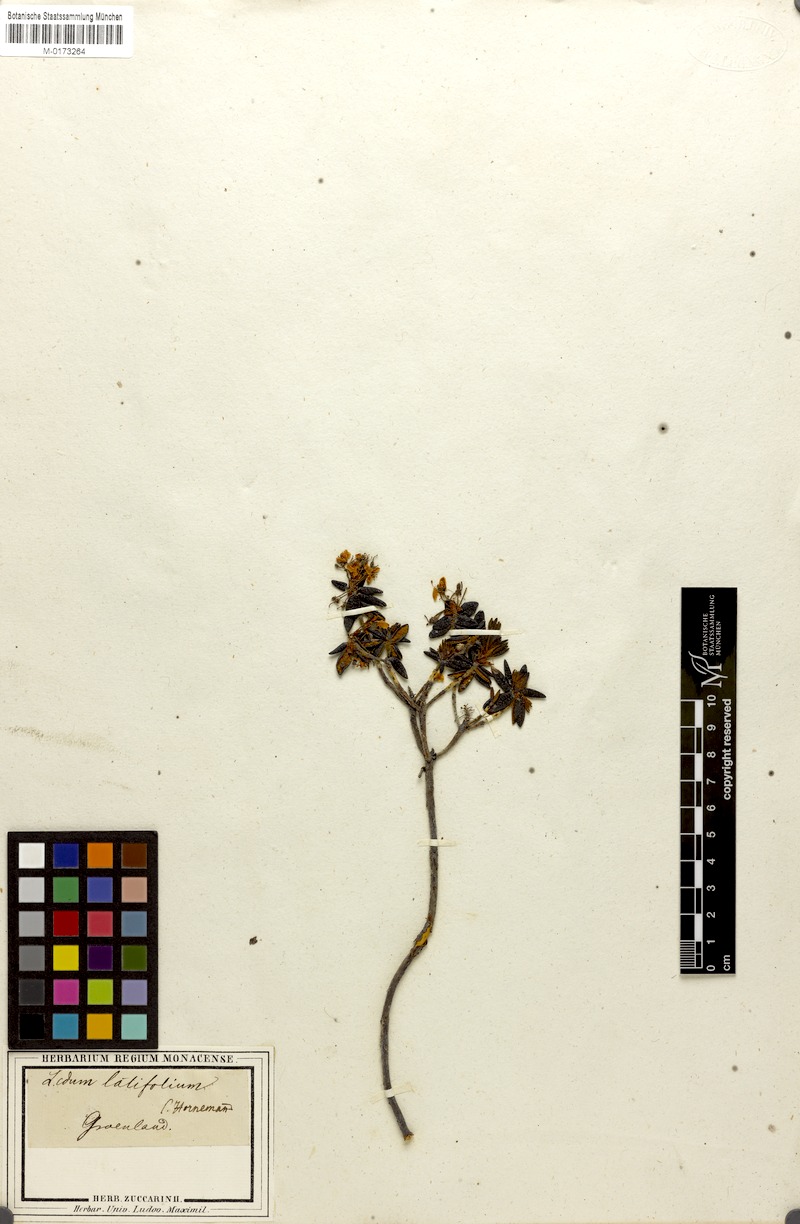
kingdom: Plantae
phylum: Tracheophyta
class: Magnoliopsida
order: Ericales
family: Ericaceae
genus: Rhododendron
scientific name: Rhododendron groenlandicum
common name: Bog labrador tea
